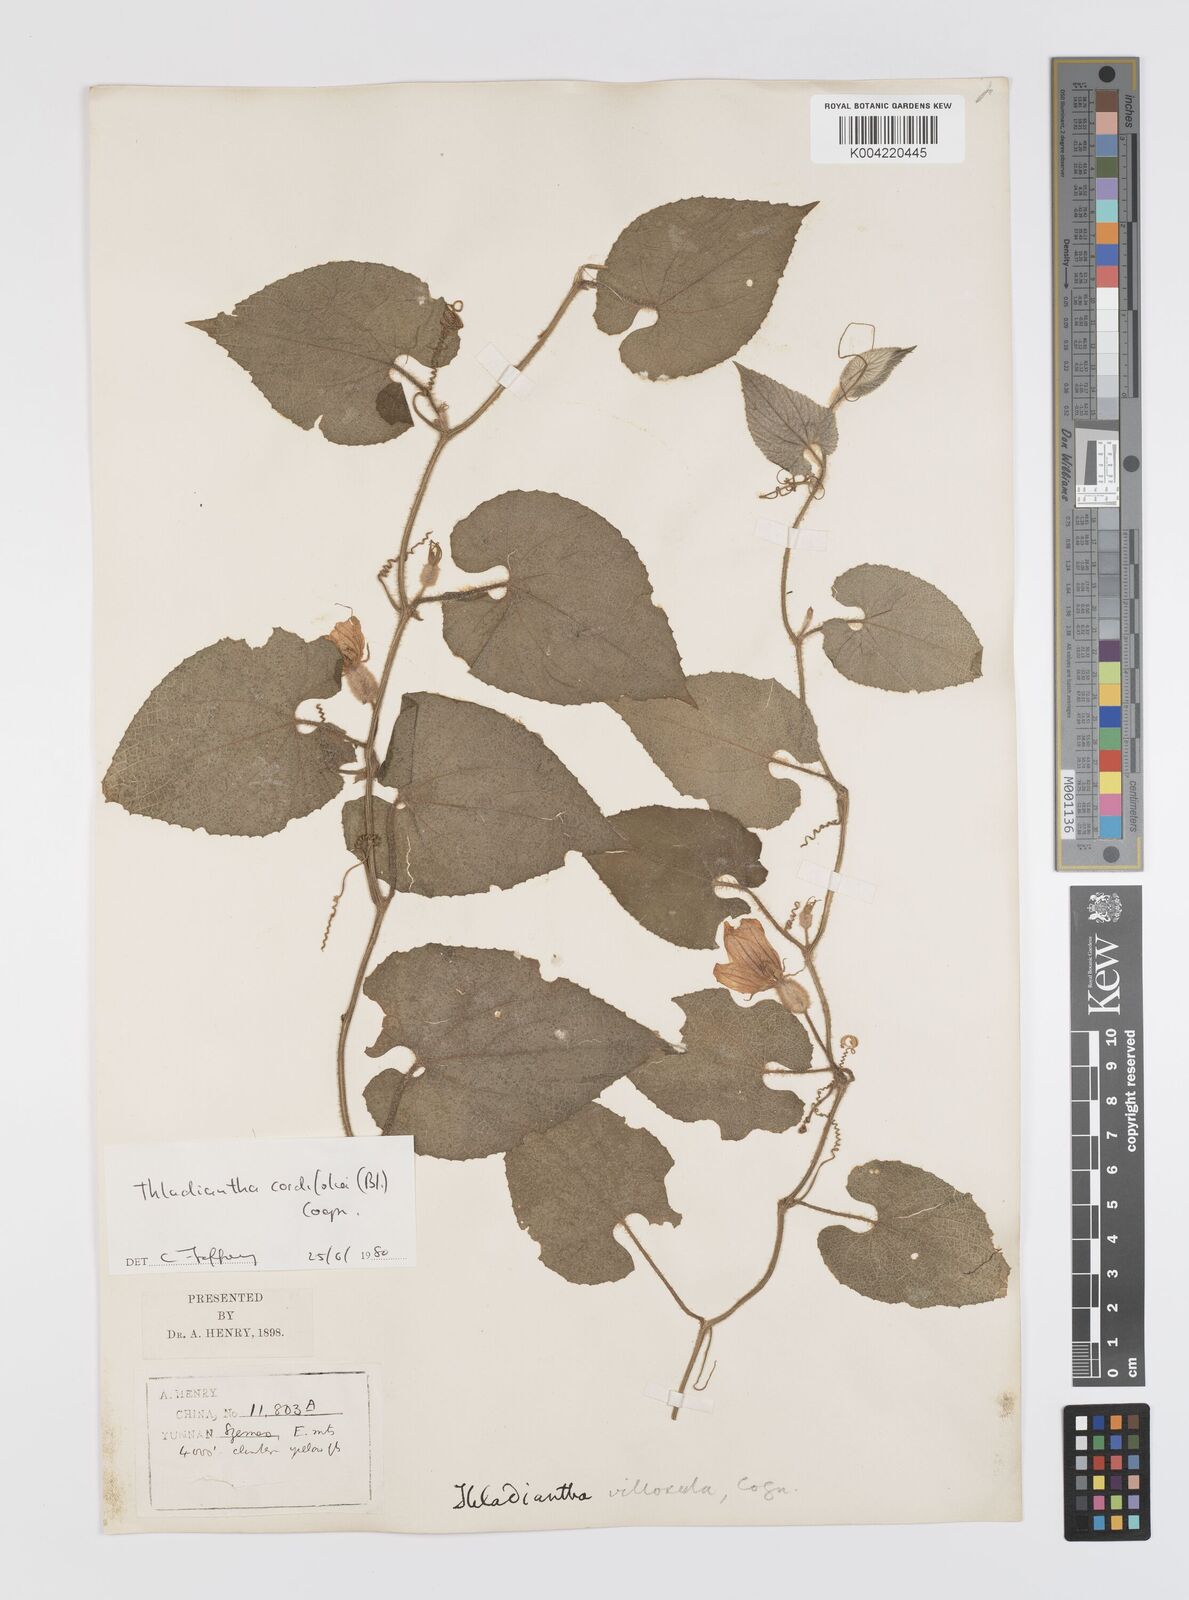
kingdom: Plantae
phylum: Tracheophyta
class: Magnoliopsida
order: Cucurbitales
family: Cucurbitaceae
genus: Thladiantha
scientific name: Thladiantha cordifolia
